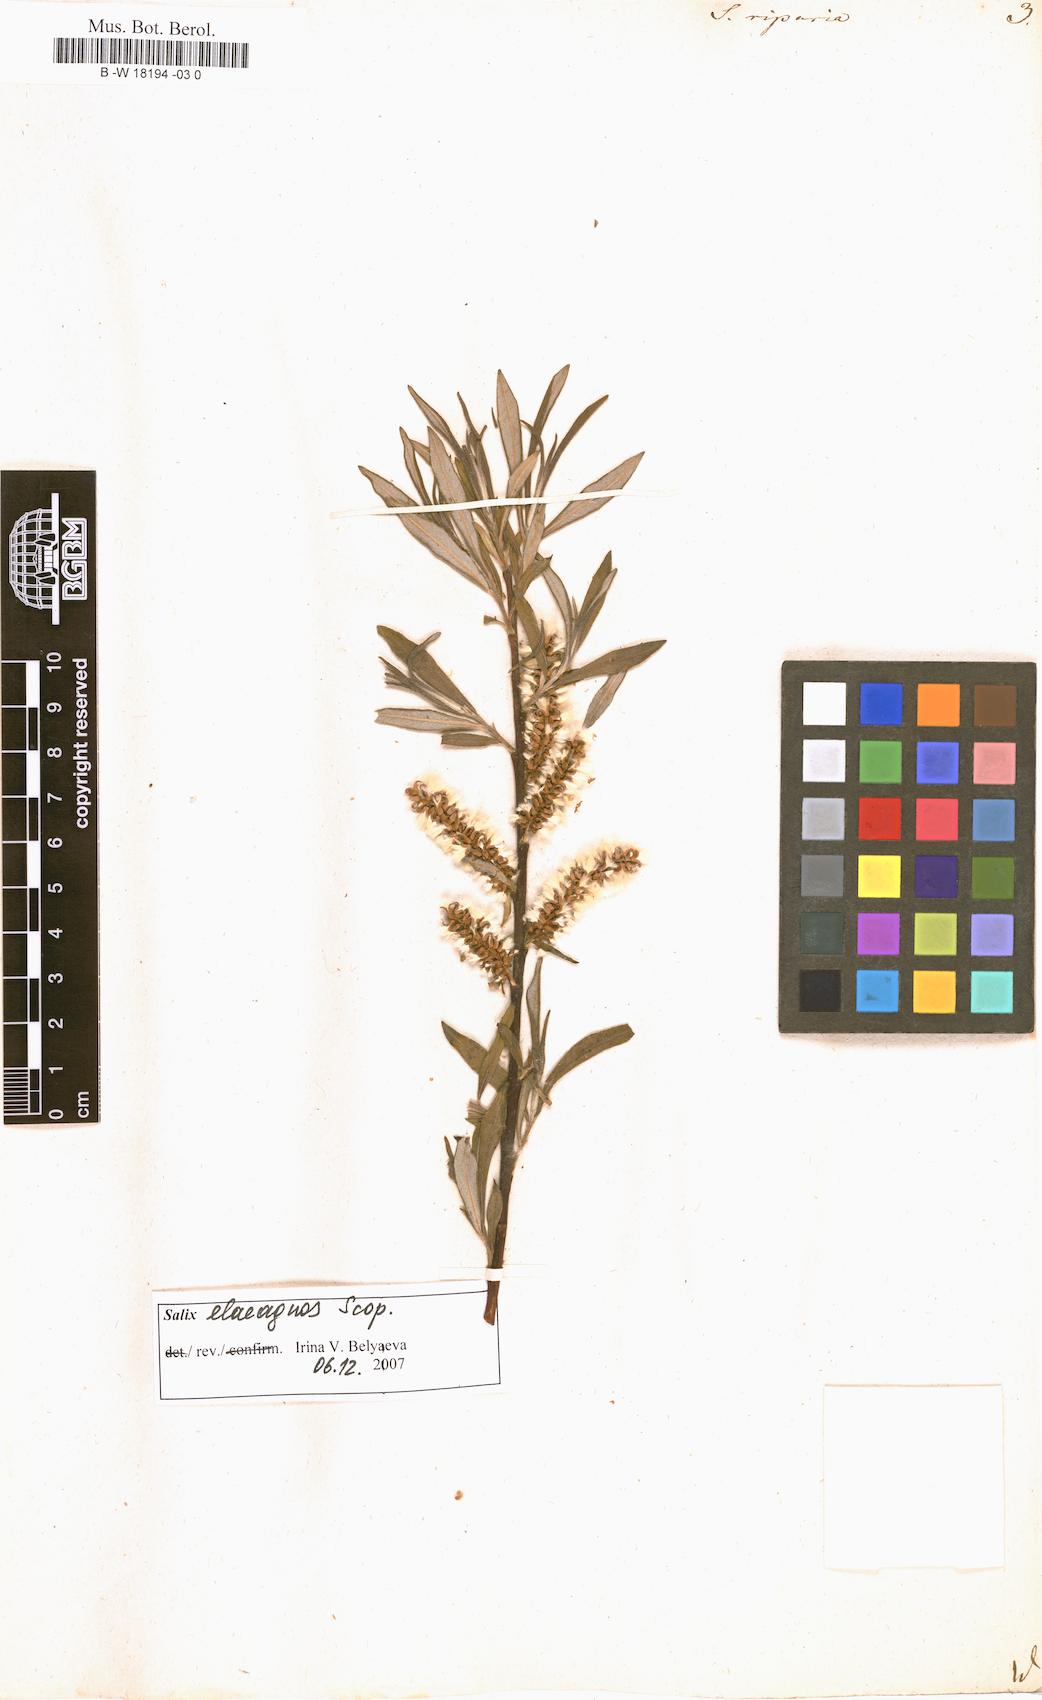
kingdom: Plantae
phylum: Tracheophyta
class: Magnoliopsida
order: Malpighiales
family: Salicaceae
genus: Salix
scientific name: Salix eleagnos
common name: Elaeagnus willow
